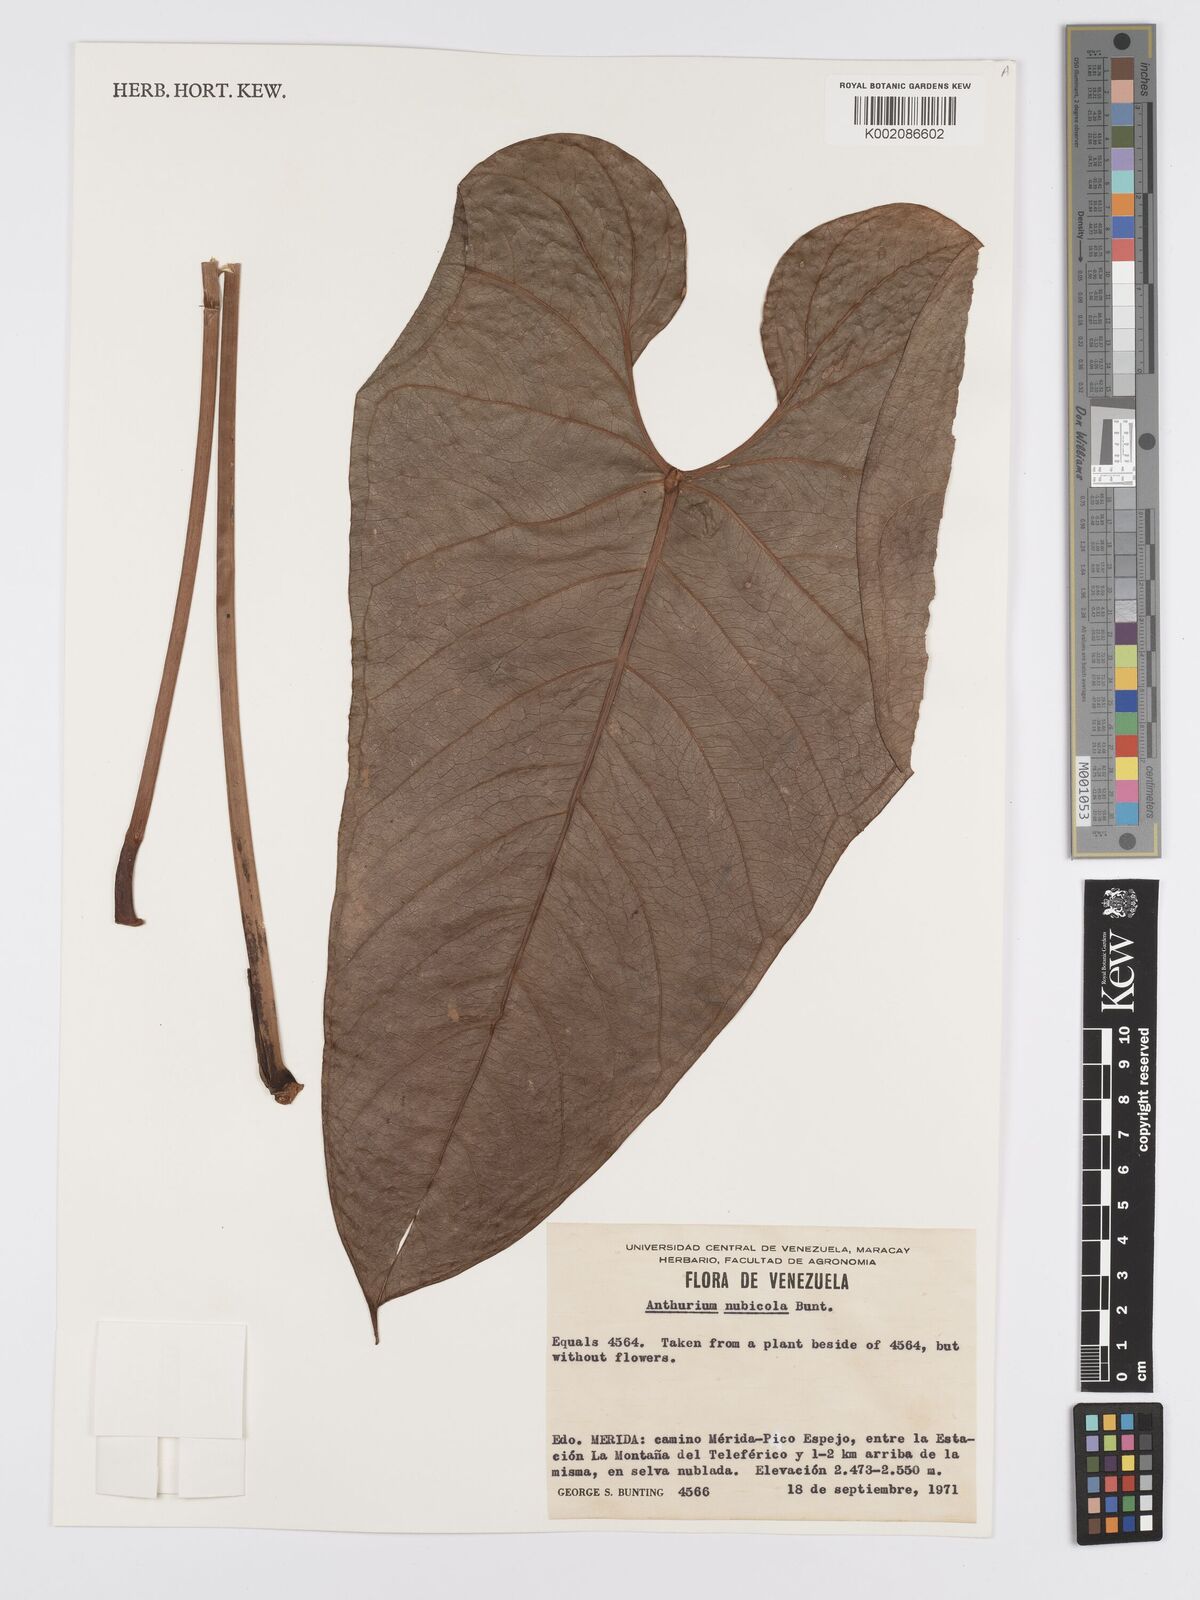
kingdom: Plantae
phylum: Tracheophyta
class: Liliopsida
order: Alismatales
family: Araceae
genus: Anthurium
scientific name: Anthurium nubicola
